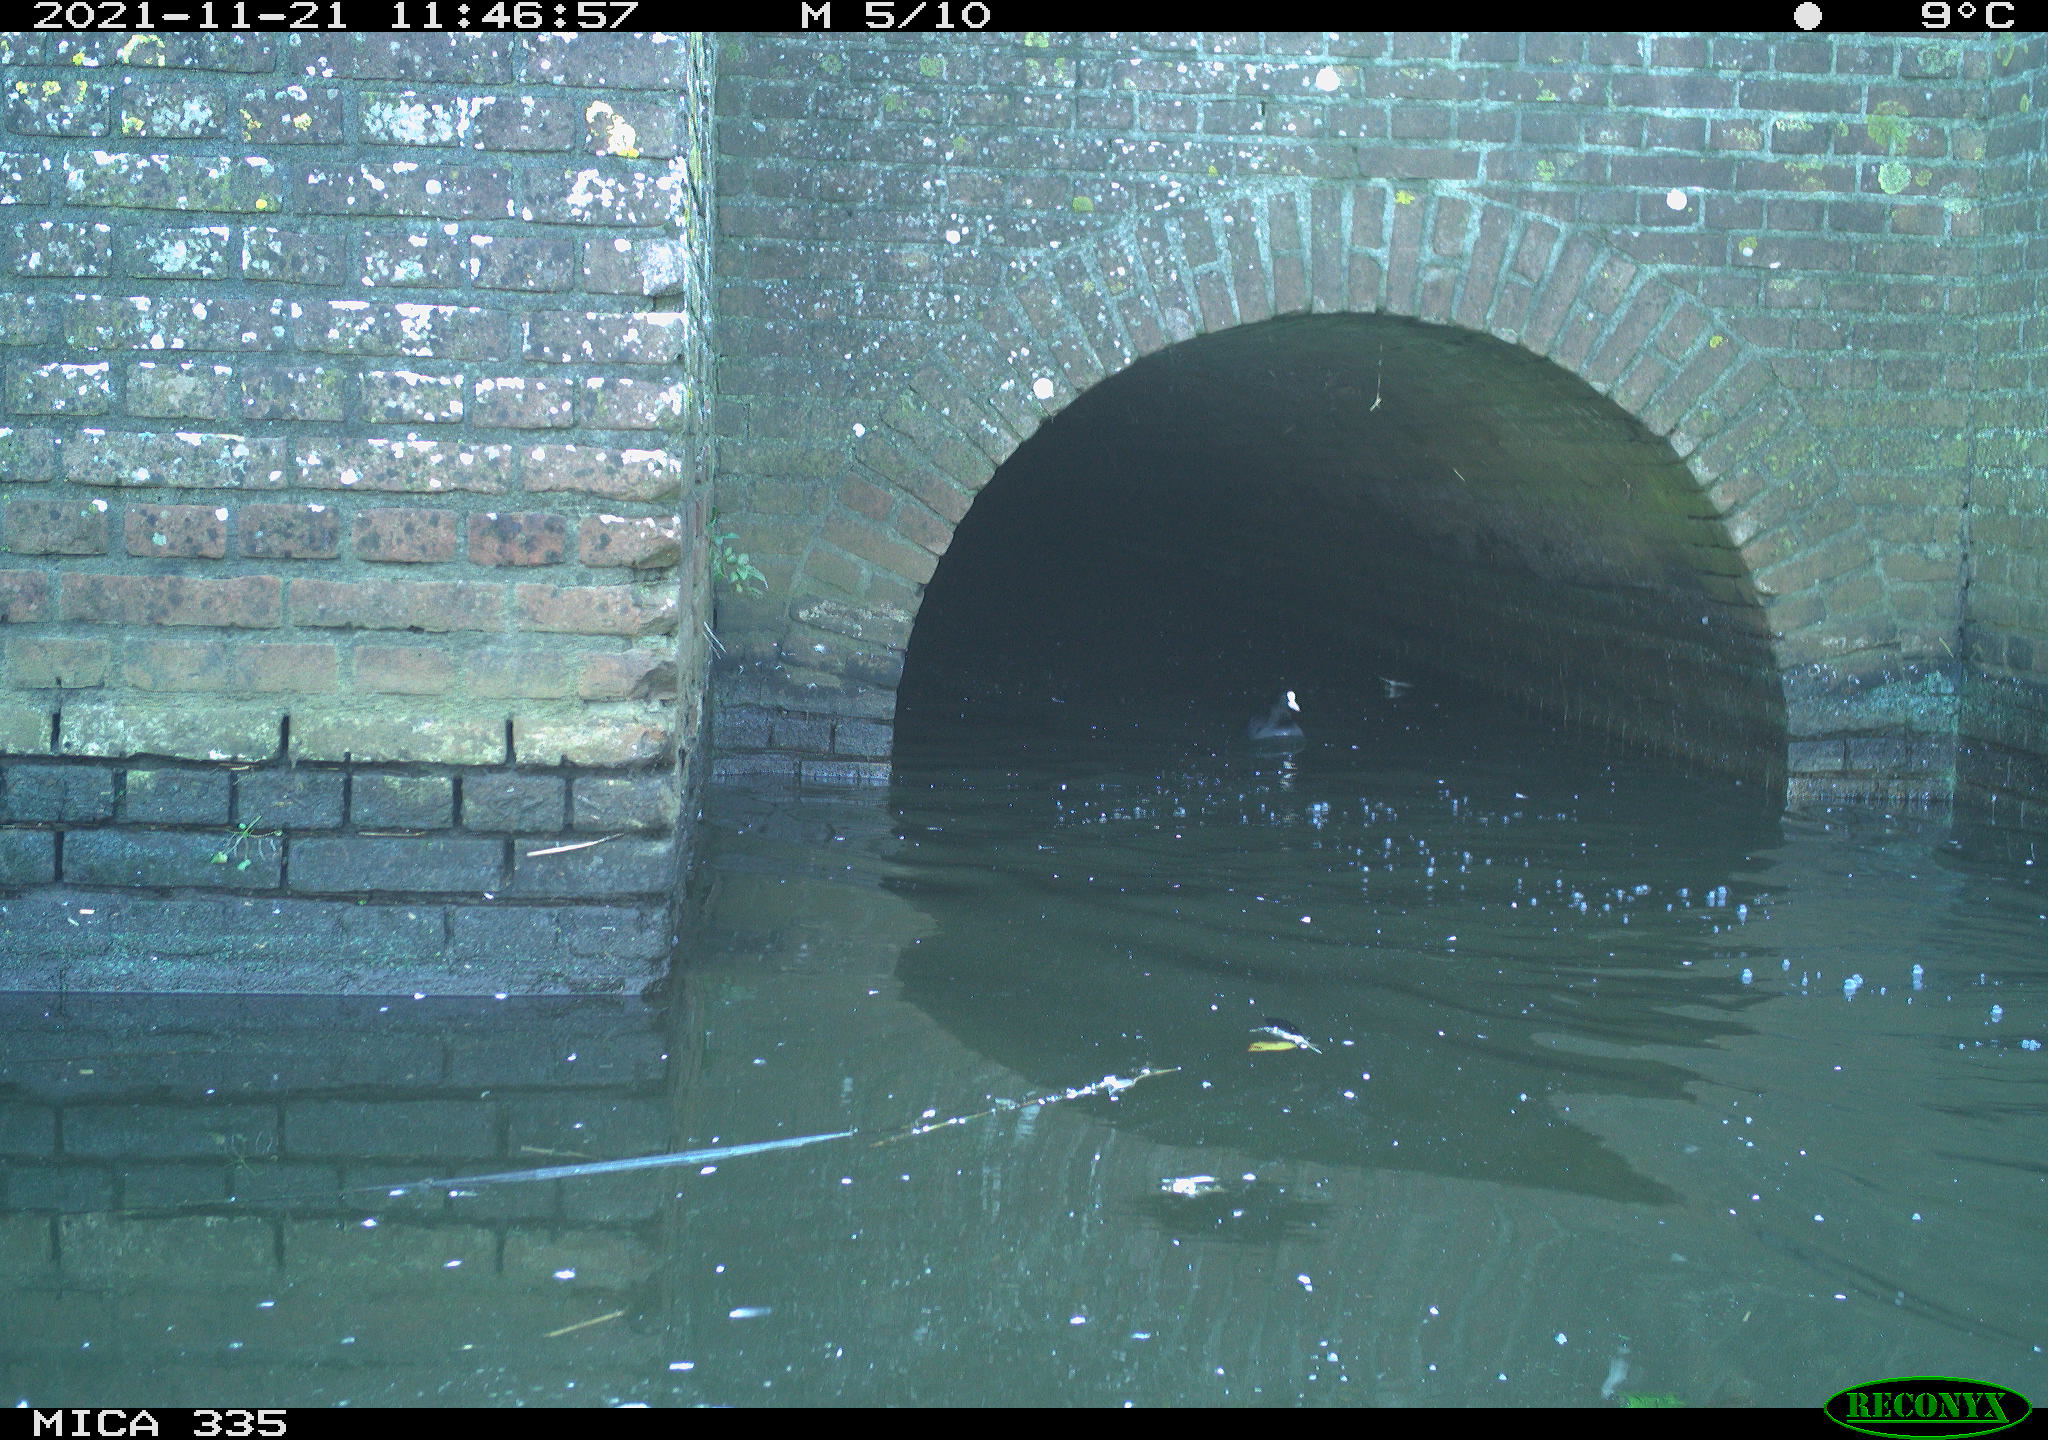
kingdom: Animalia
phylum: Chordata
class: Aves
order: Gruiformes
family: Rallidae
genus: Fulica
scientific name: Fulica atra
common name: Eurasian coot
